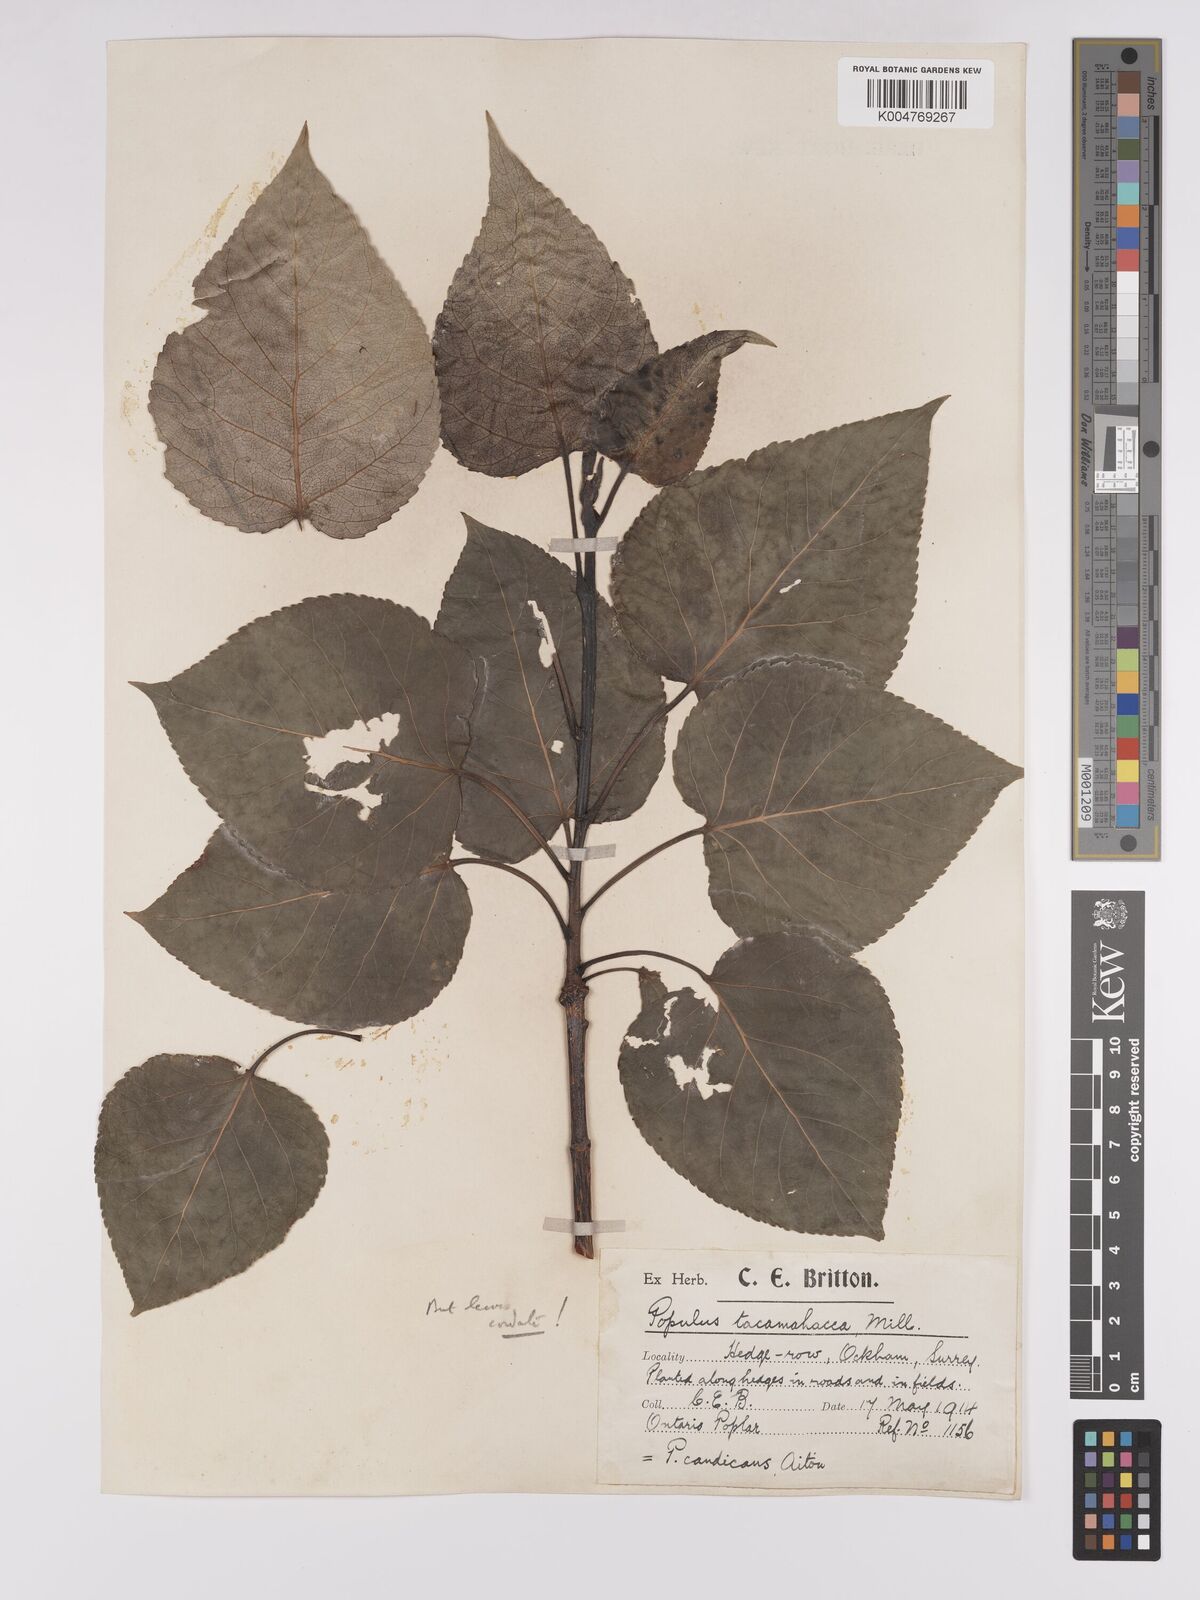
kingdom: Plantae
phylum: Tracheophyta
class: Magnoliopsida
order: Malpighiales
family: Salicaceae
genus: Populus
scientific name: Populus jackii
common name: Balm-of-gilead
